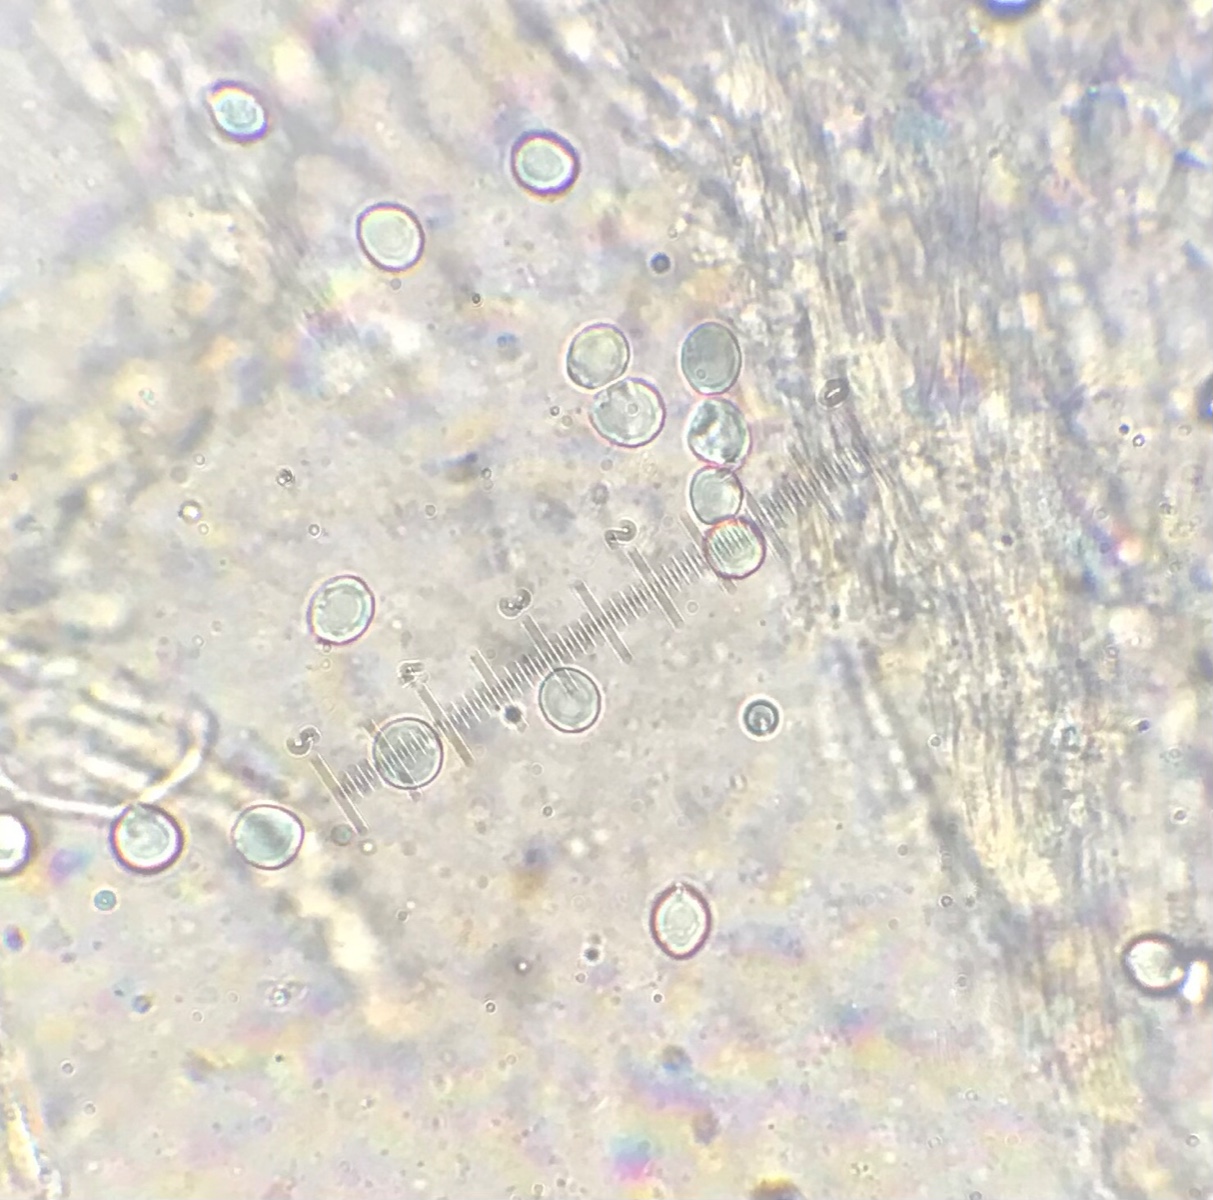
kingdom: Fungi
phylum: Basidiomycota
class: Agaricomycetes
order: Cantharellales
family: Hydnaceae
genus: Hydnum
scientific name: Hydnum repandum
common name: almindelig pigsvamp
